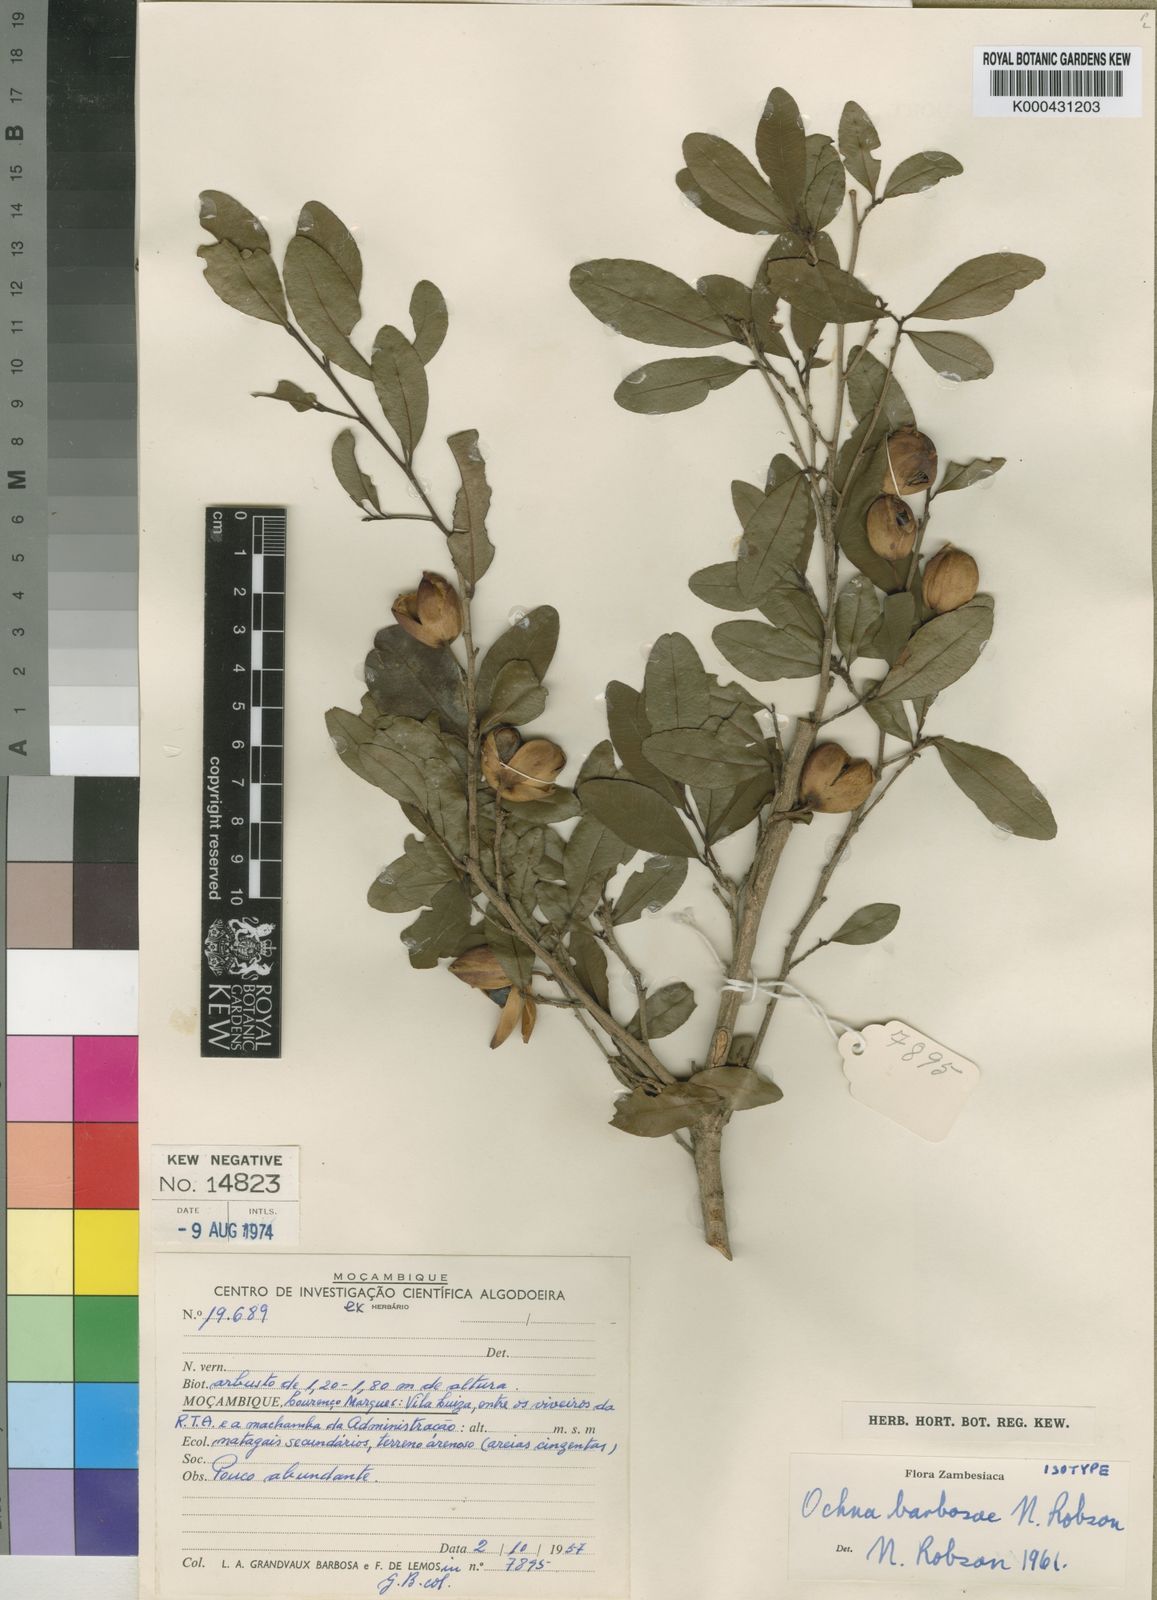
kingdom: Plantae
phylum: Tracheophyta
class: Magnoliopsida
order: Malpighiales
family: Ochnaceae
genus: Ochna
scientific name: Ochna barbosae
